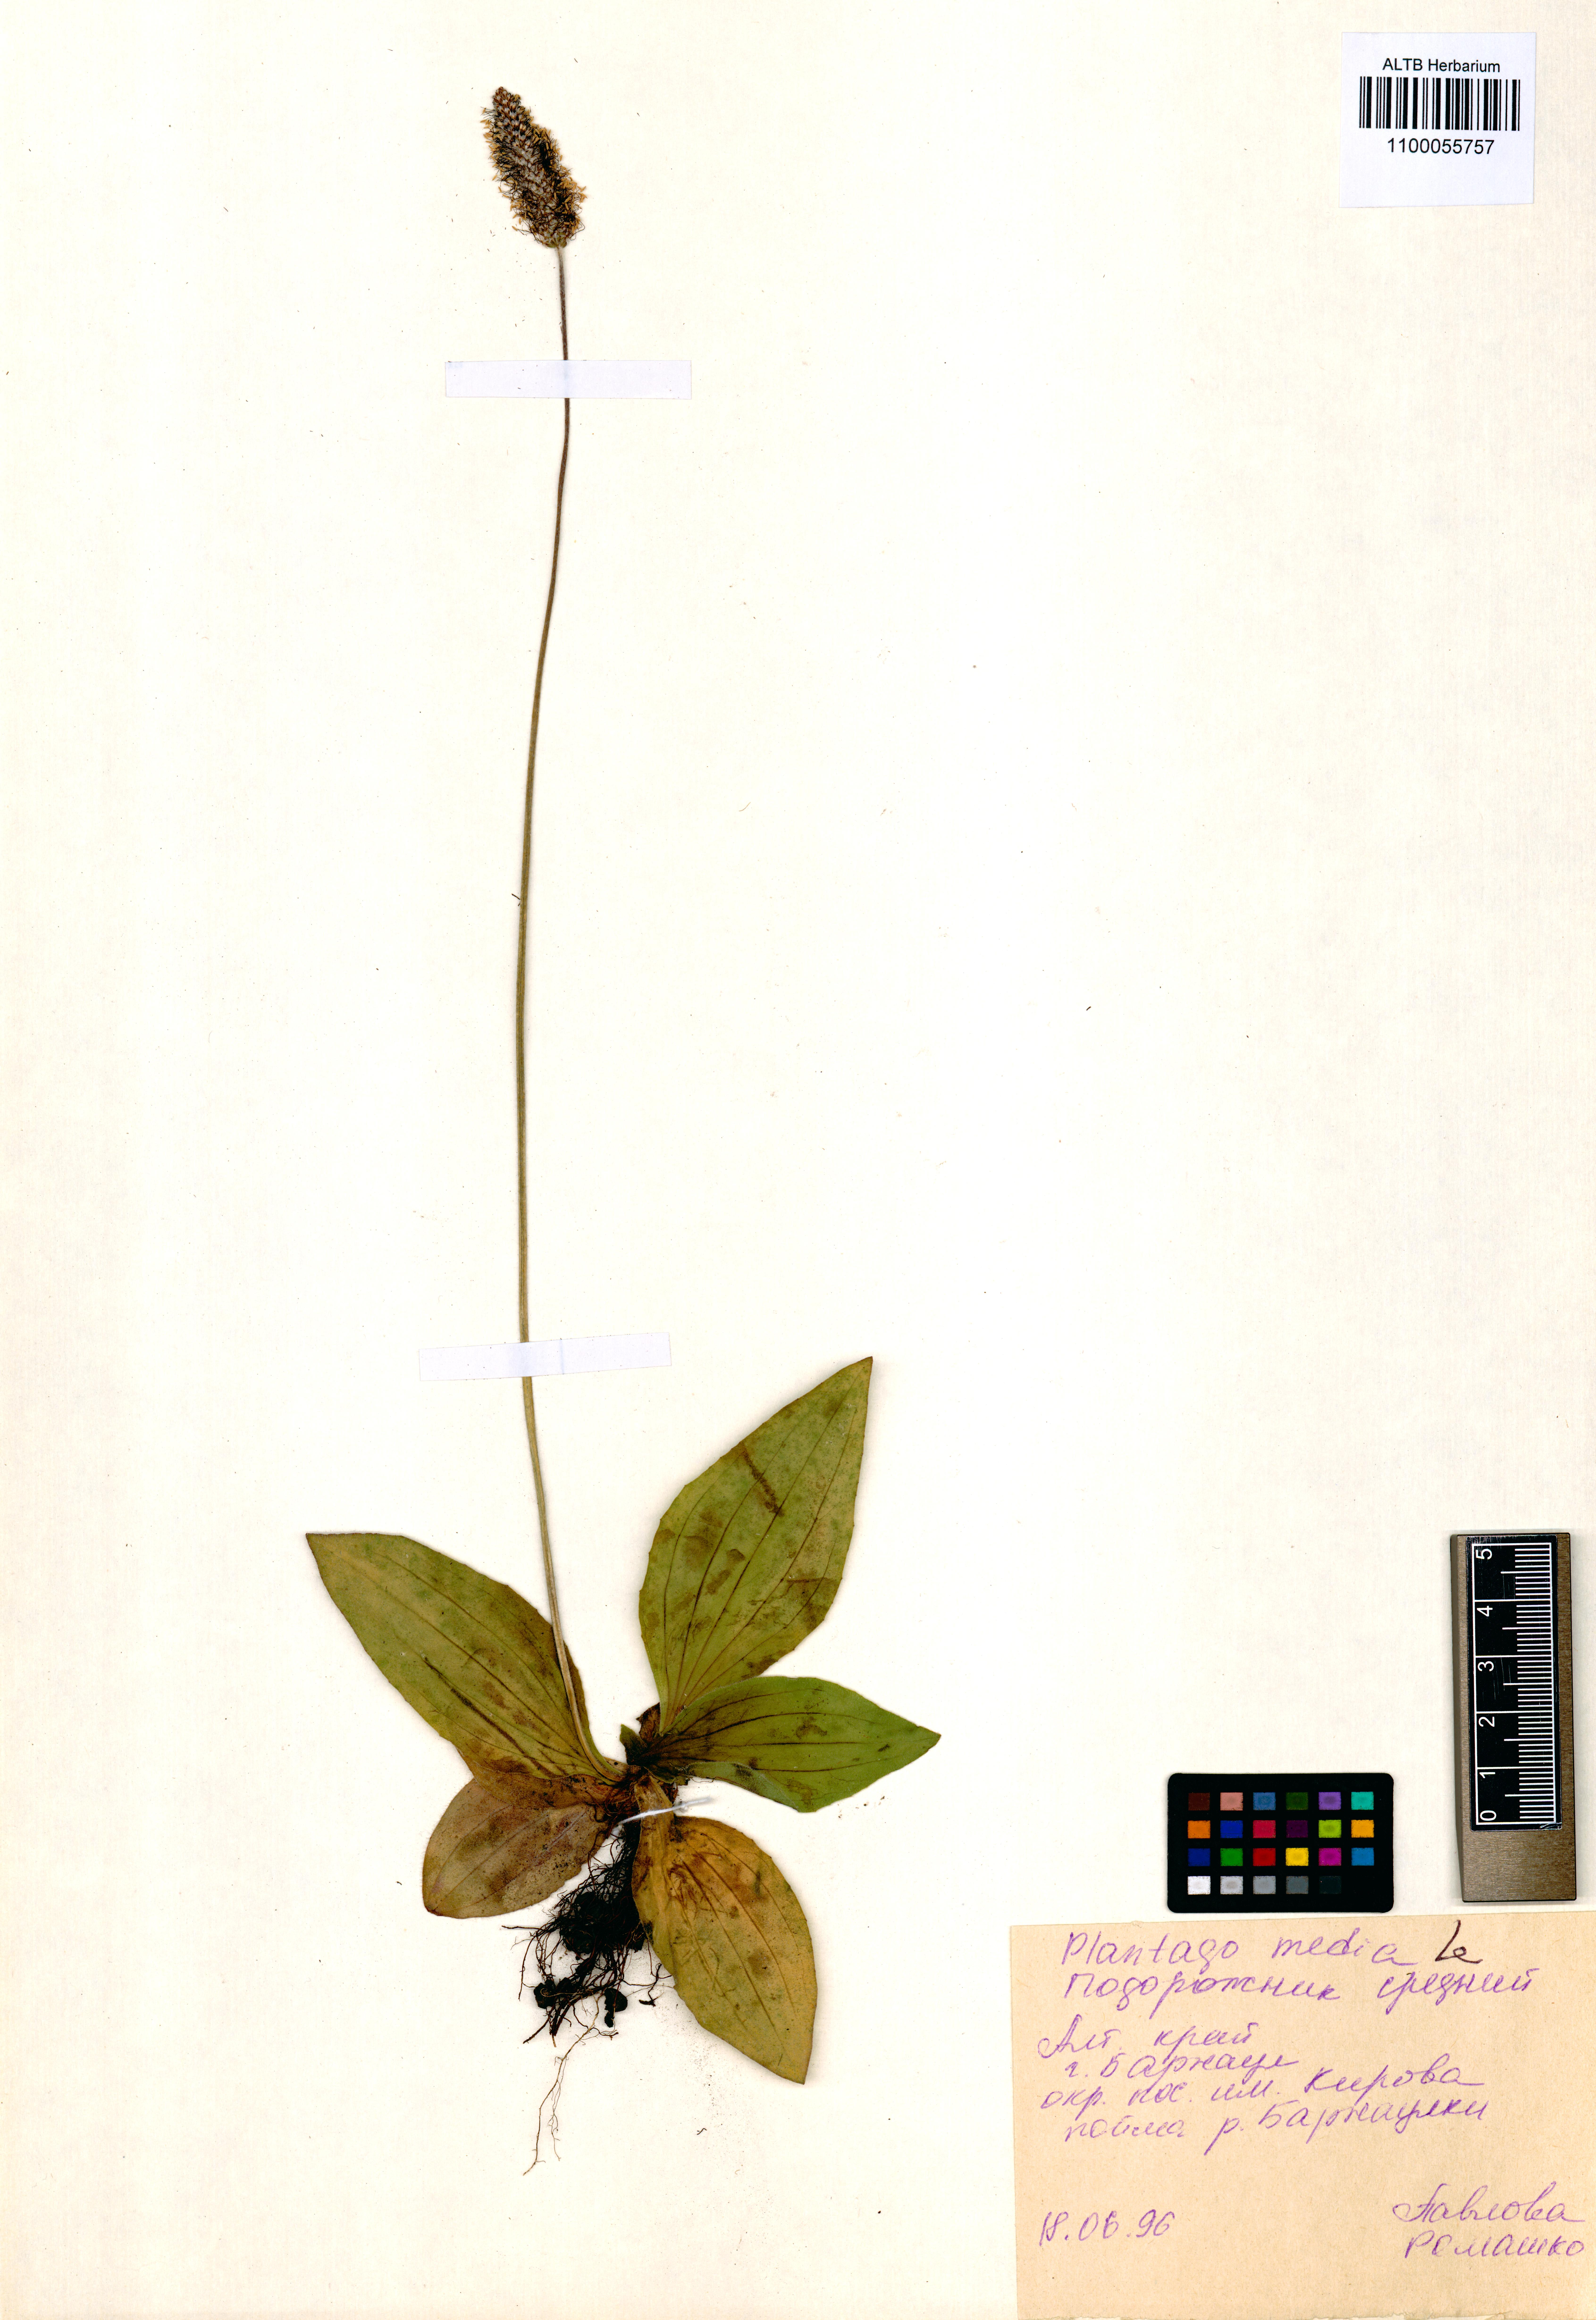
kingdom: Plantae
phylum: Tracheophyta
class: Magnoliopsida
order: Lamiales
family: Plantaginaceae
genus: Plantago
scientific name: Plantago media
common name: Hoary plantain
